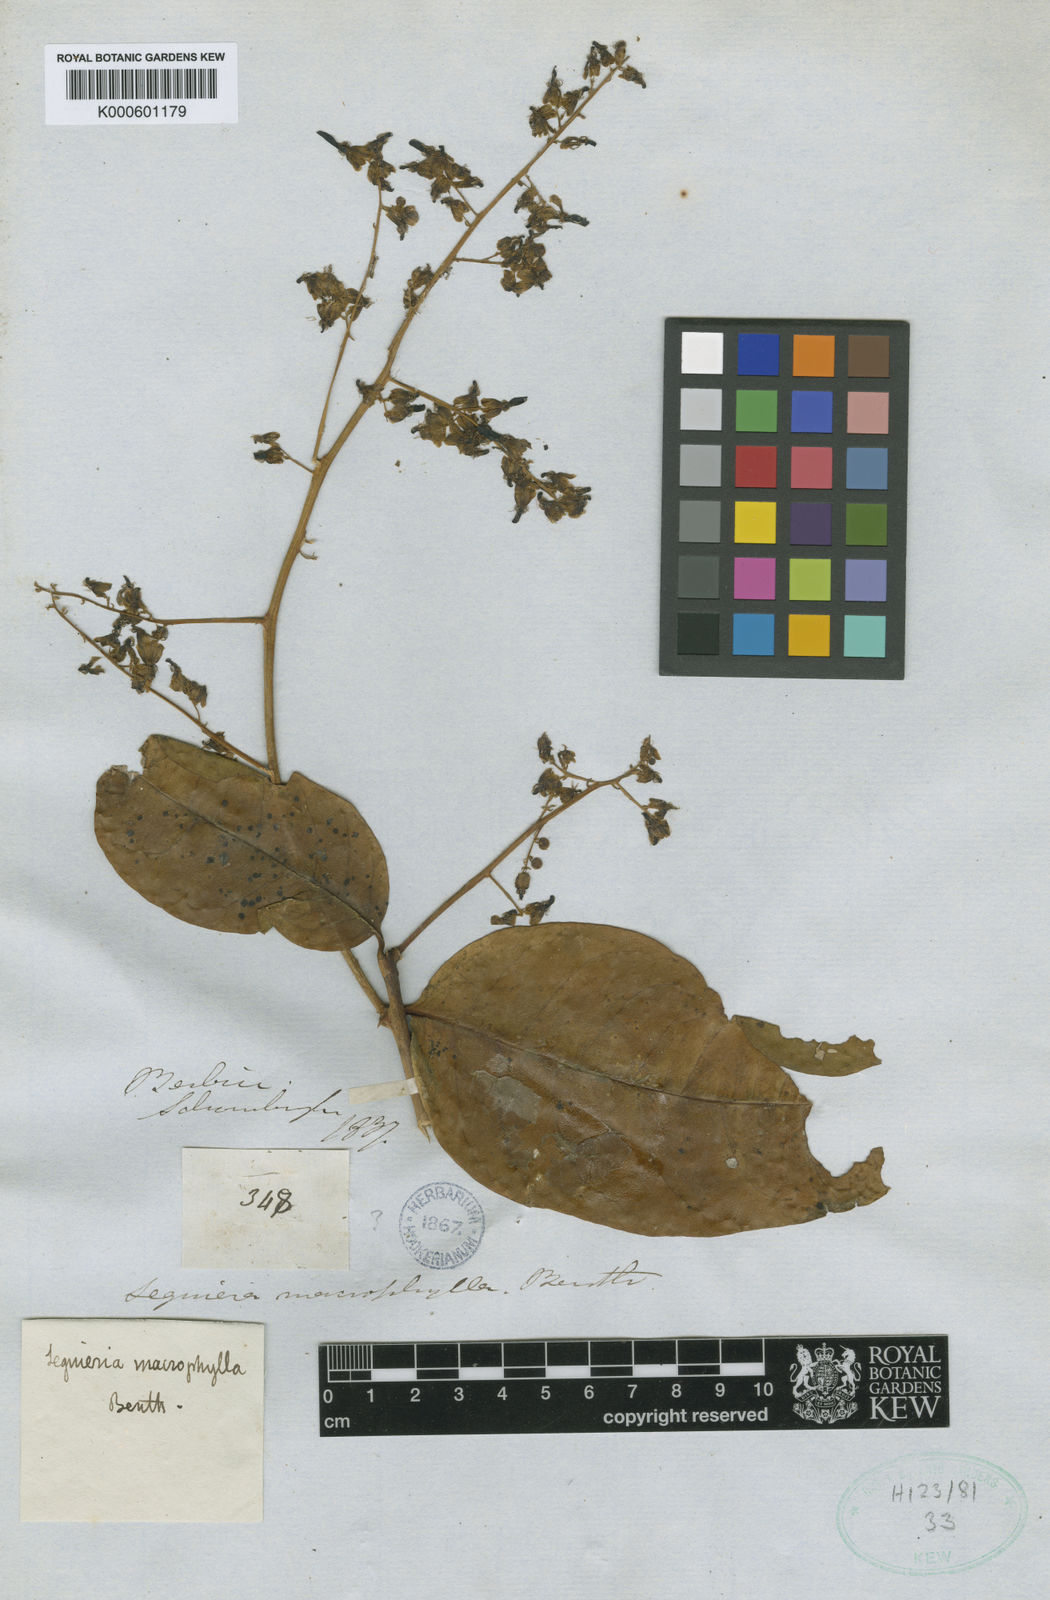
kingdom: Plantae
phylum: Tracheophyta
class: Magnoliopsida
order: Caryophyllales
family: Phytolaccaceae
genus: Seguieria
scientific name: Seguieria macrophylla
